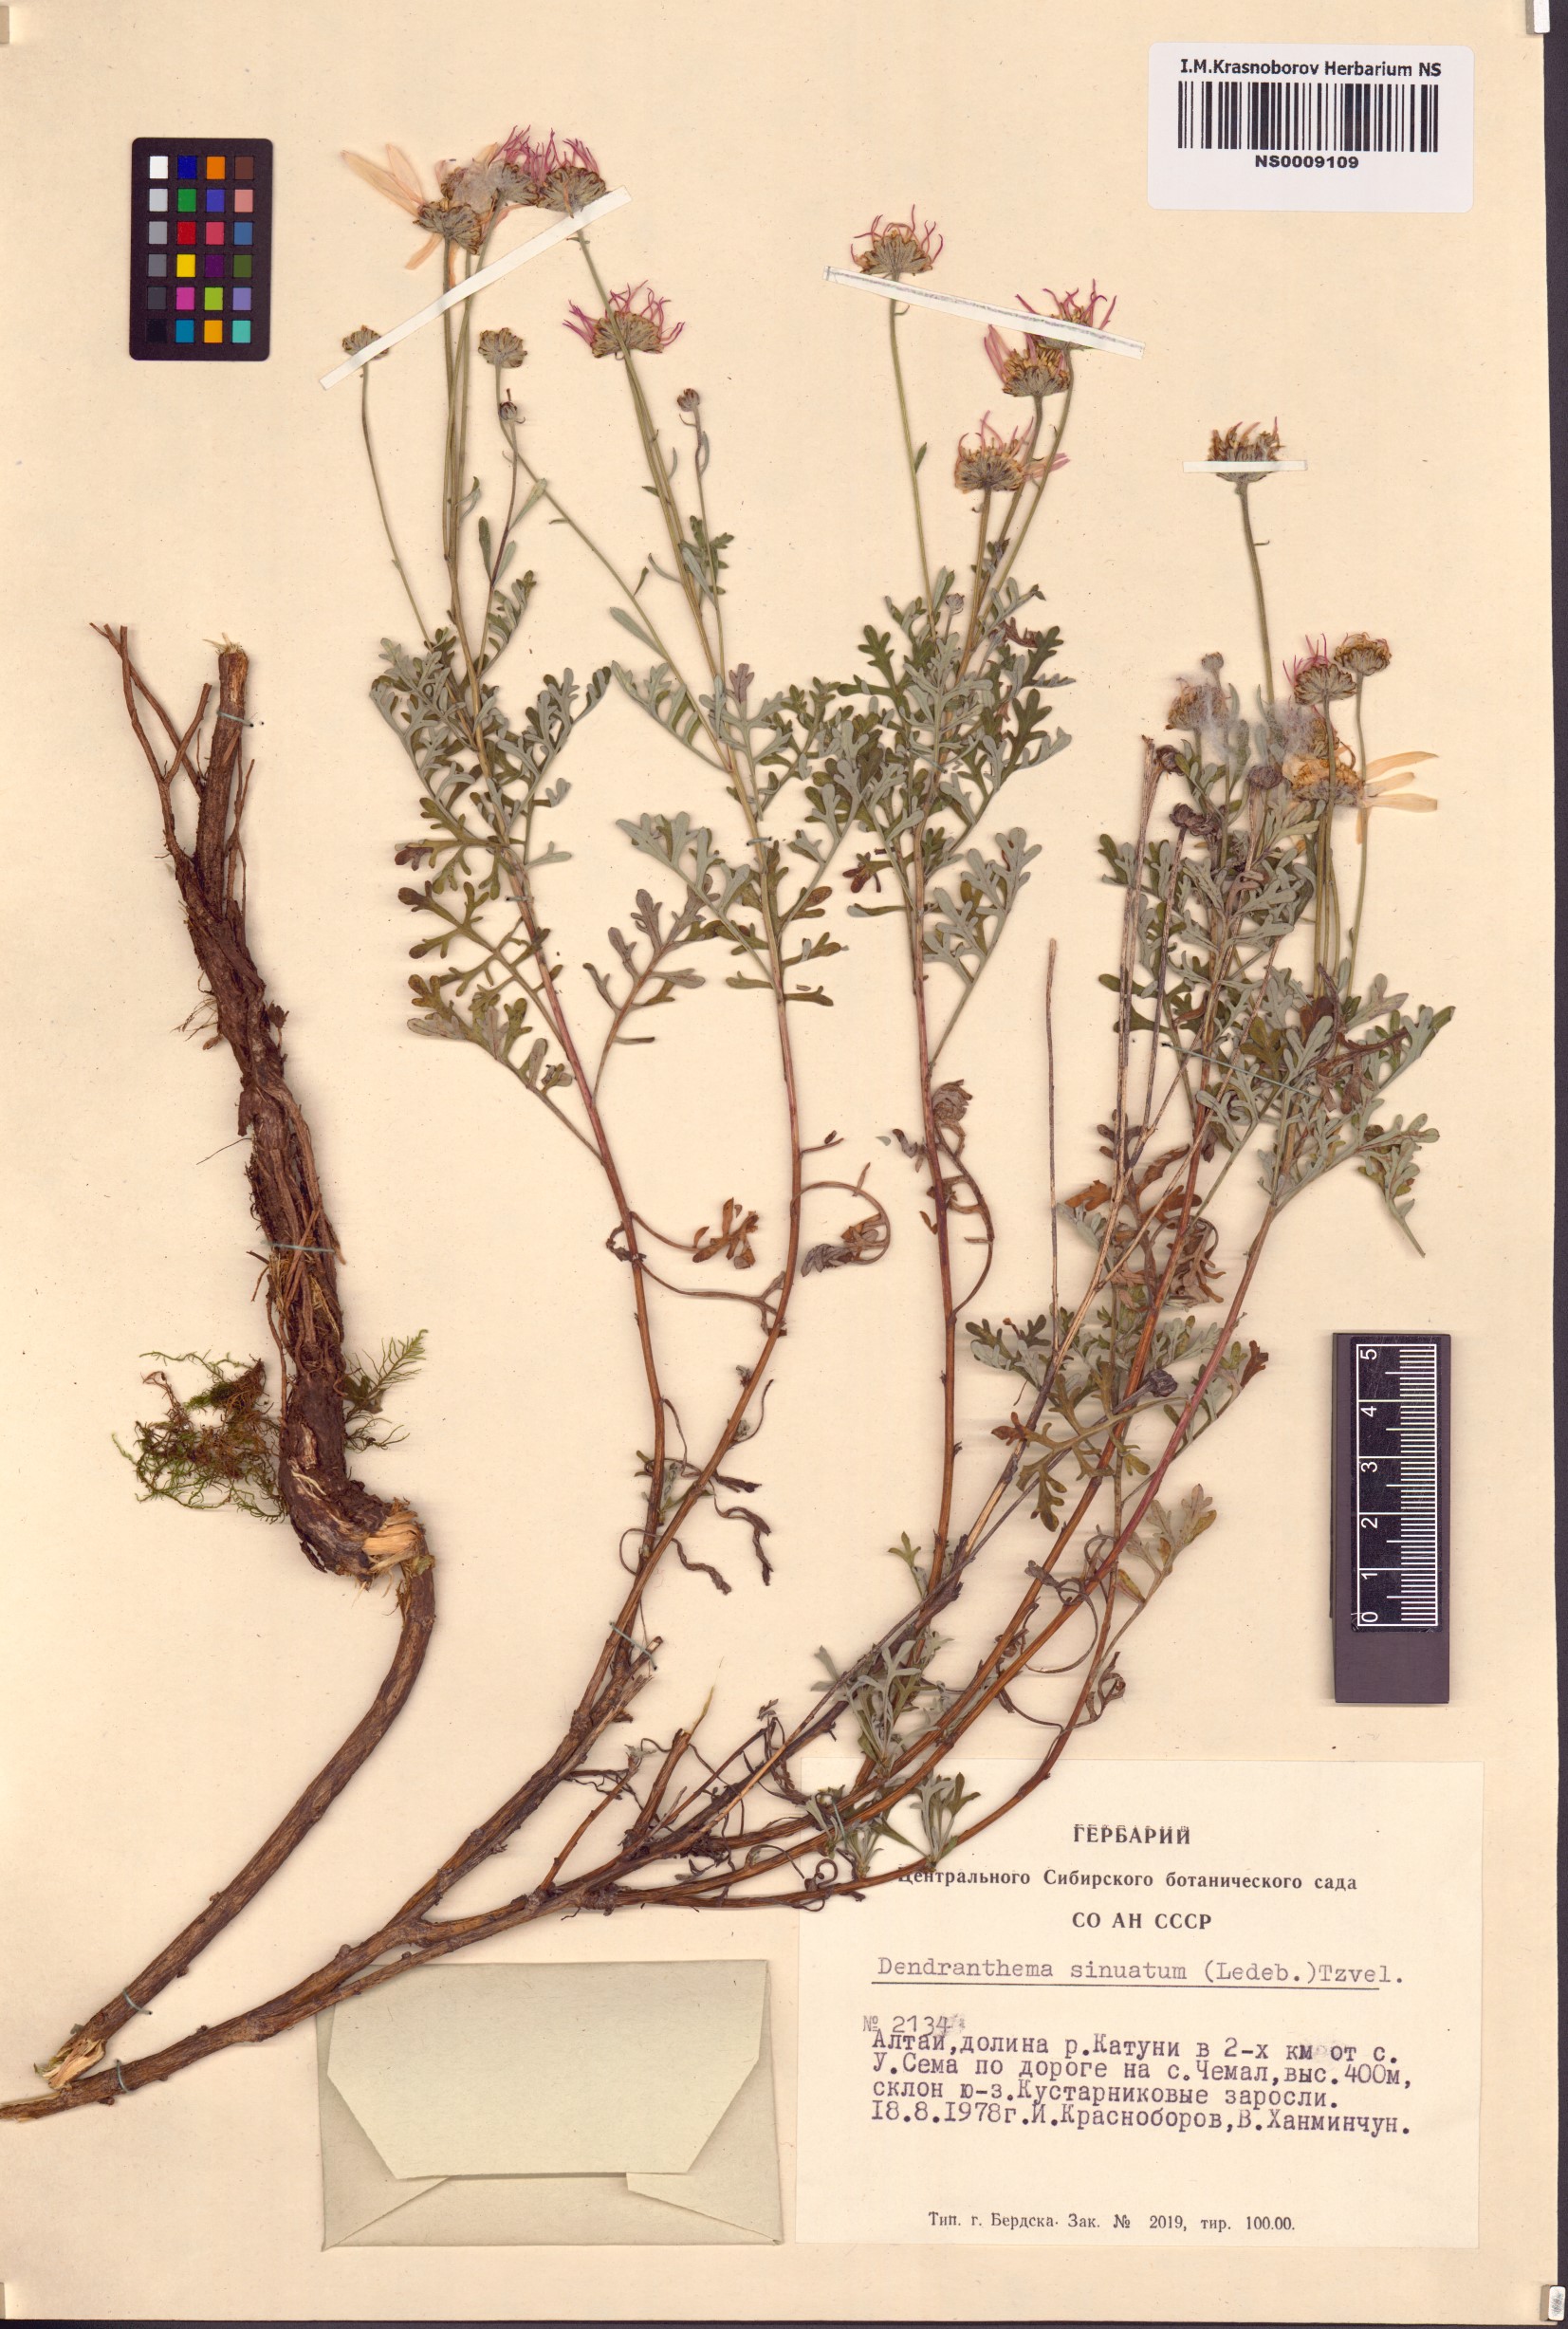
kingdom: Plantae
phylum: Tracheophyta
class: Magnoliopsida
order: Asterales
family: Asteraceae
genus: Chrysanthemum
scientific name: Chrysanthemum sinuatum
